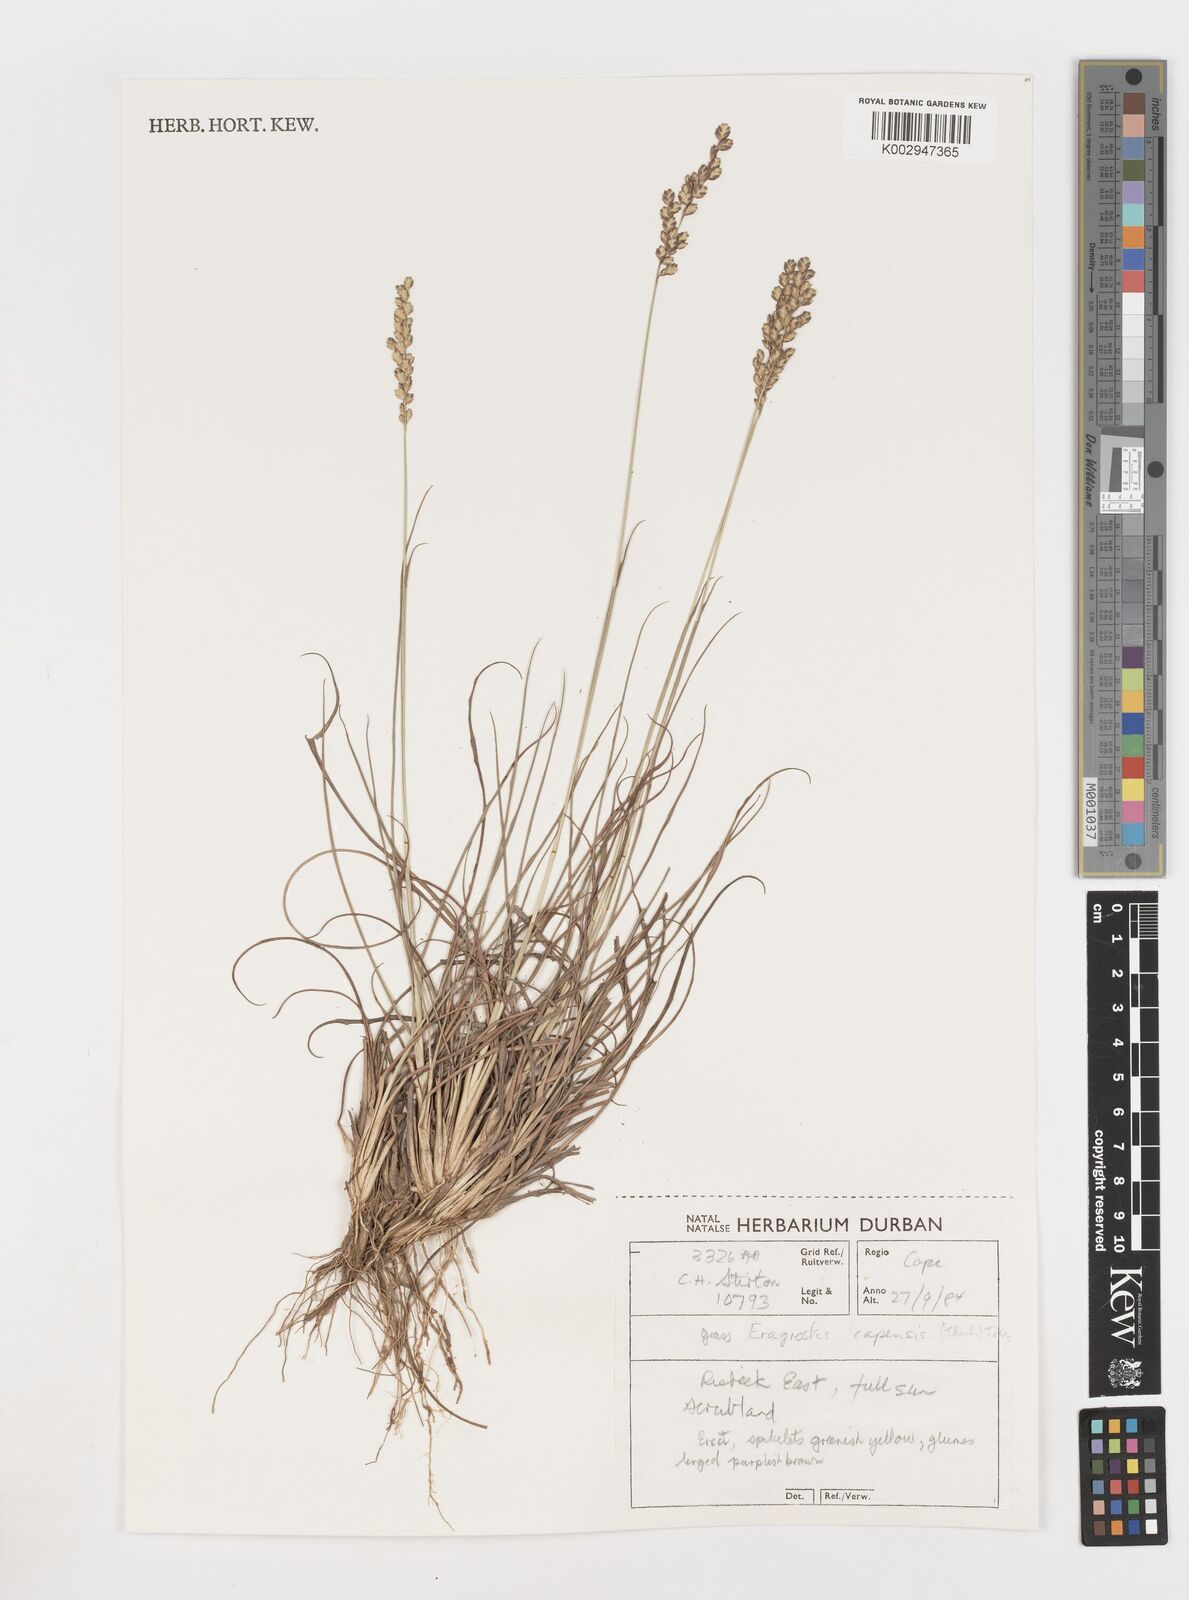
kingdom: Plantae
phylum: Tracheophyta
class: Liliopsida
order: Poales
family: Poaceae
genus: Eragrostis
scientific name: Eragrostis
